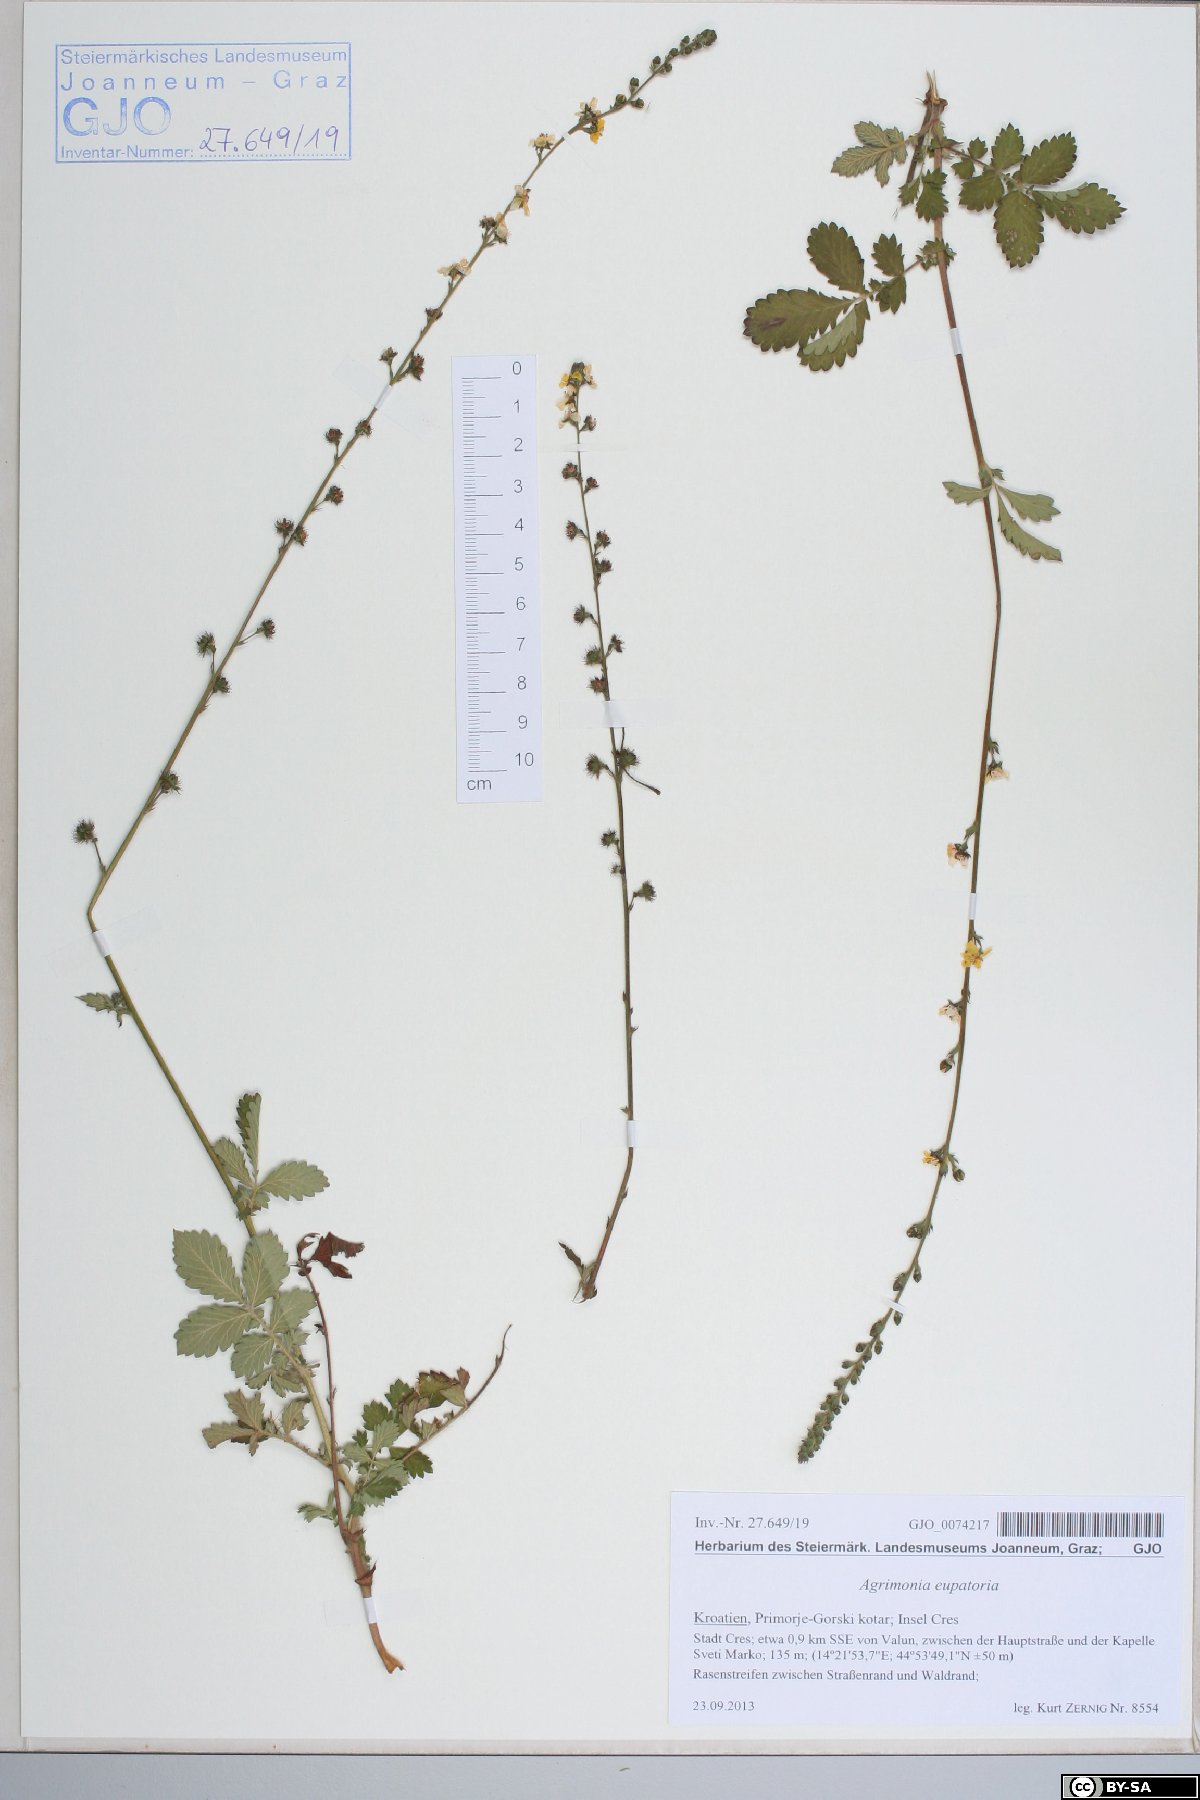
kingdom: Plantae
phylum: Tracheophyta
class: Magnoliopsida
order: Rosales
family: Rosaceae
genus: Agrimonia
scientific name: Agrimonia eupatoria
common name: Agrimony
